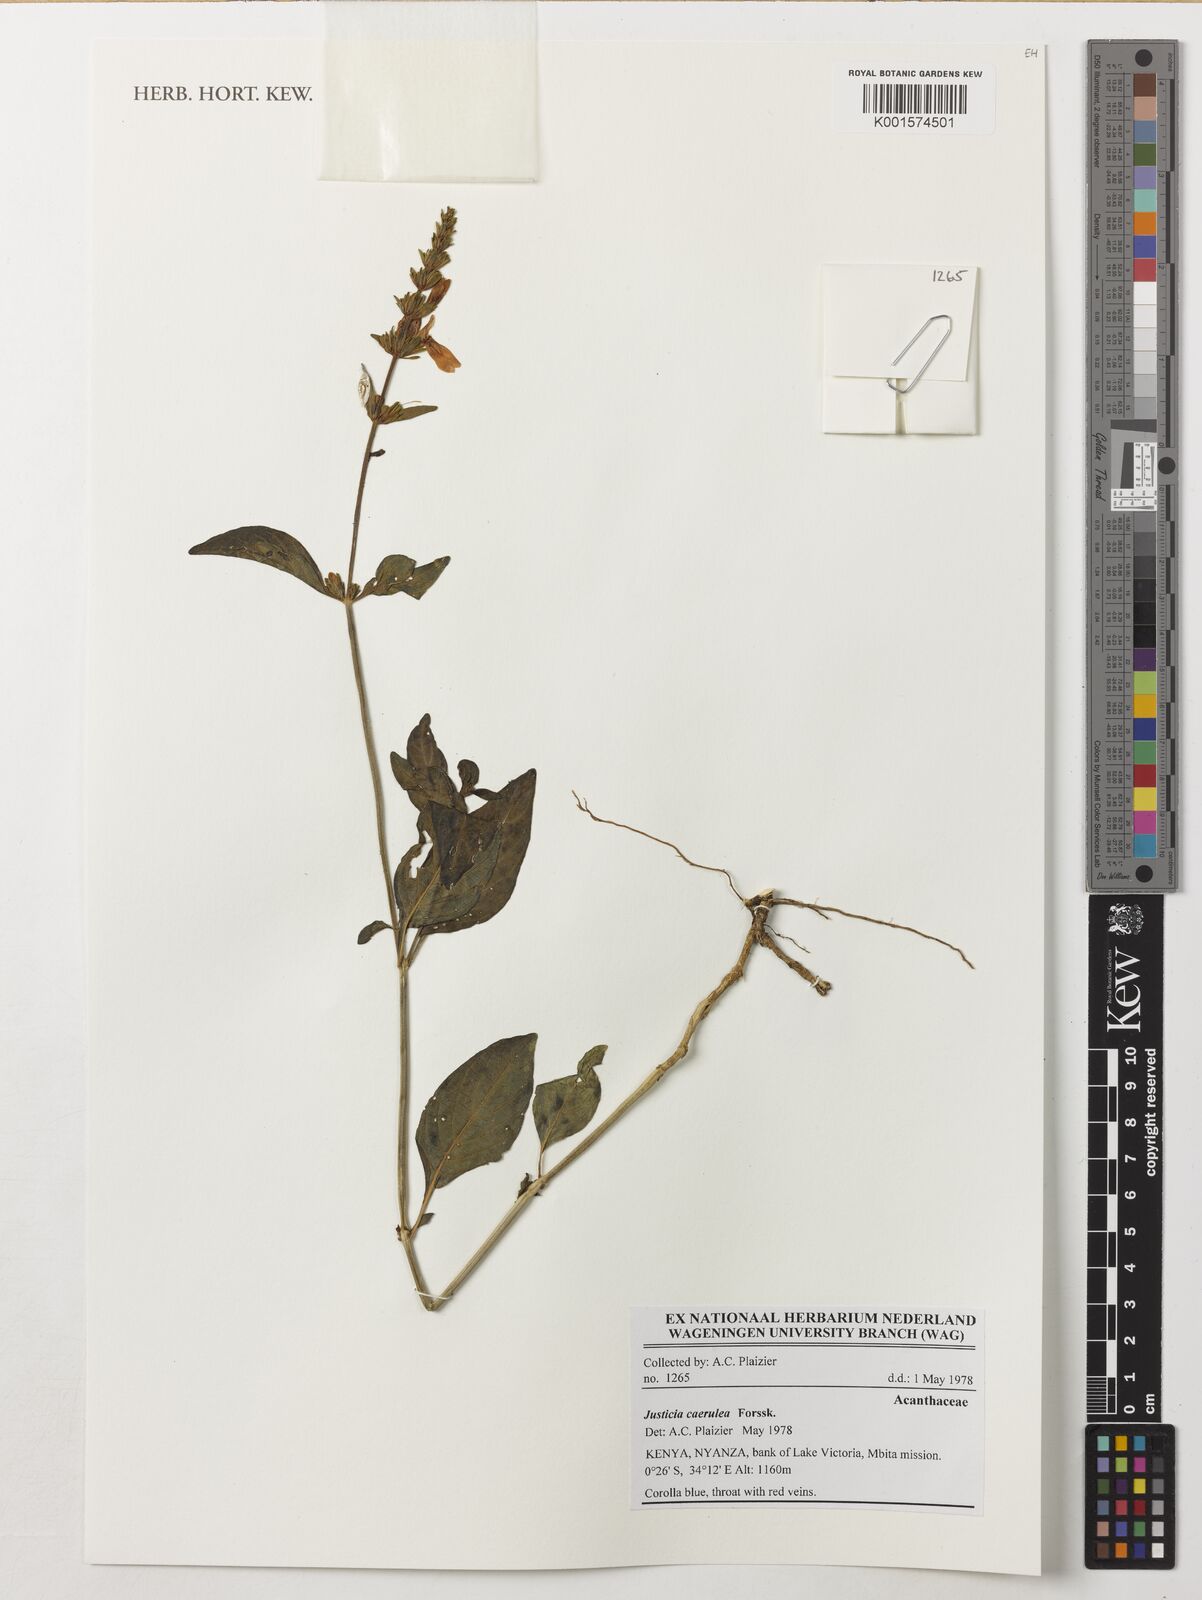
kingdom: Plantae
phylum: Tracheophyta
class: Magnoliopsida
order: Lamiales
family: Acanthaceae
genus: Justicia
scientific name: Justicia caerulea
